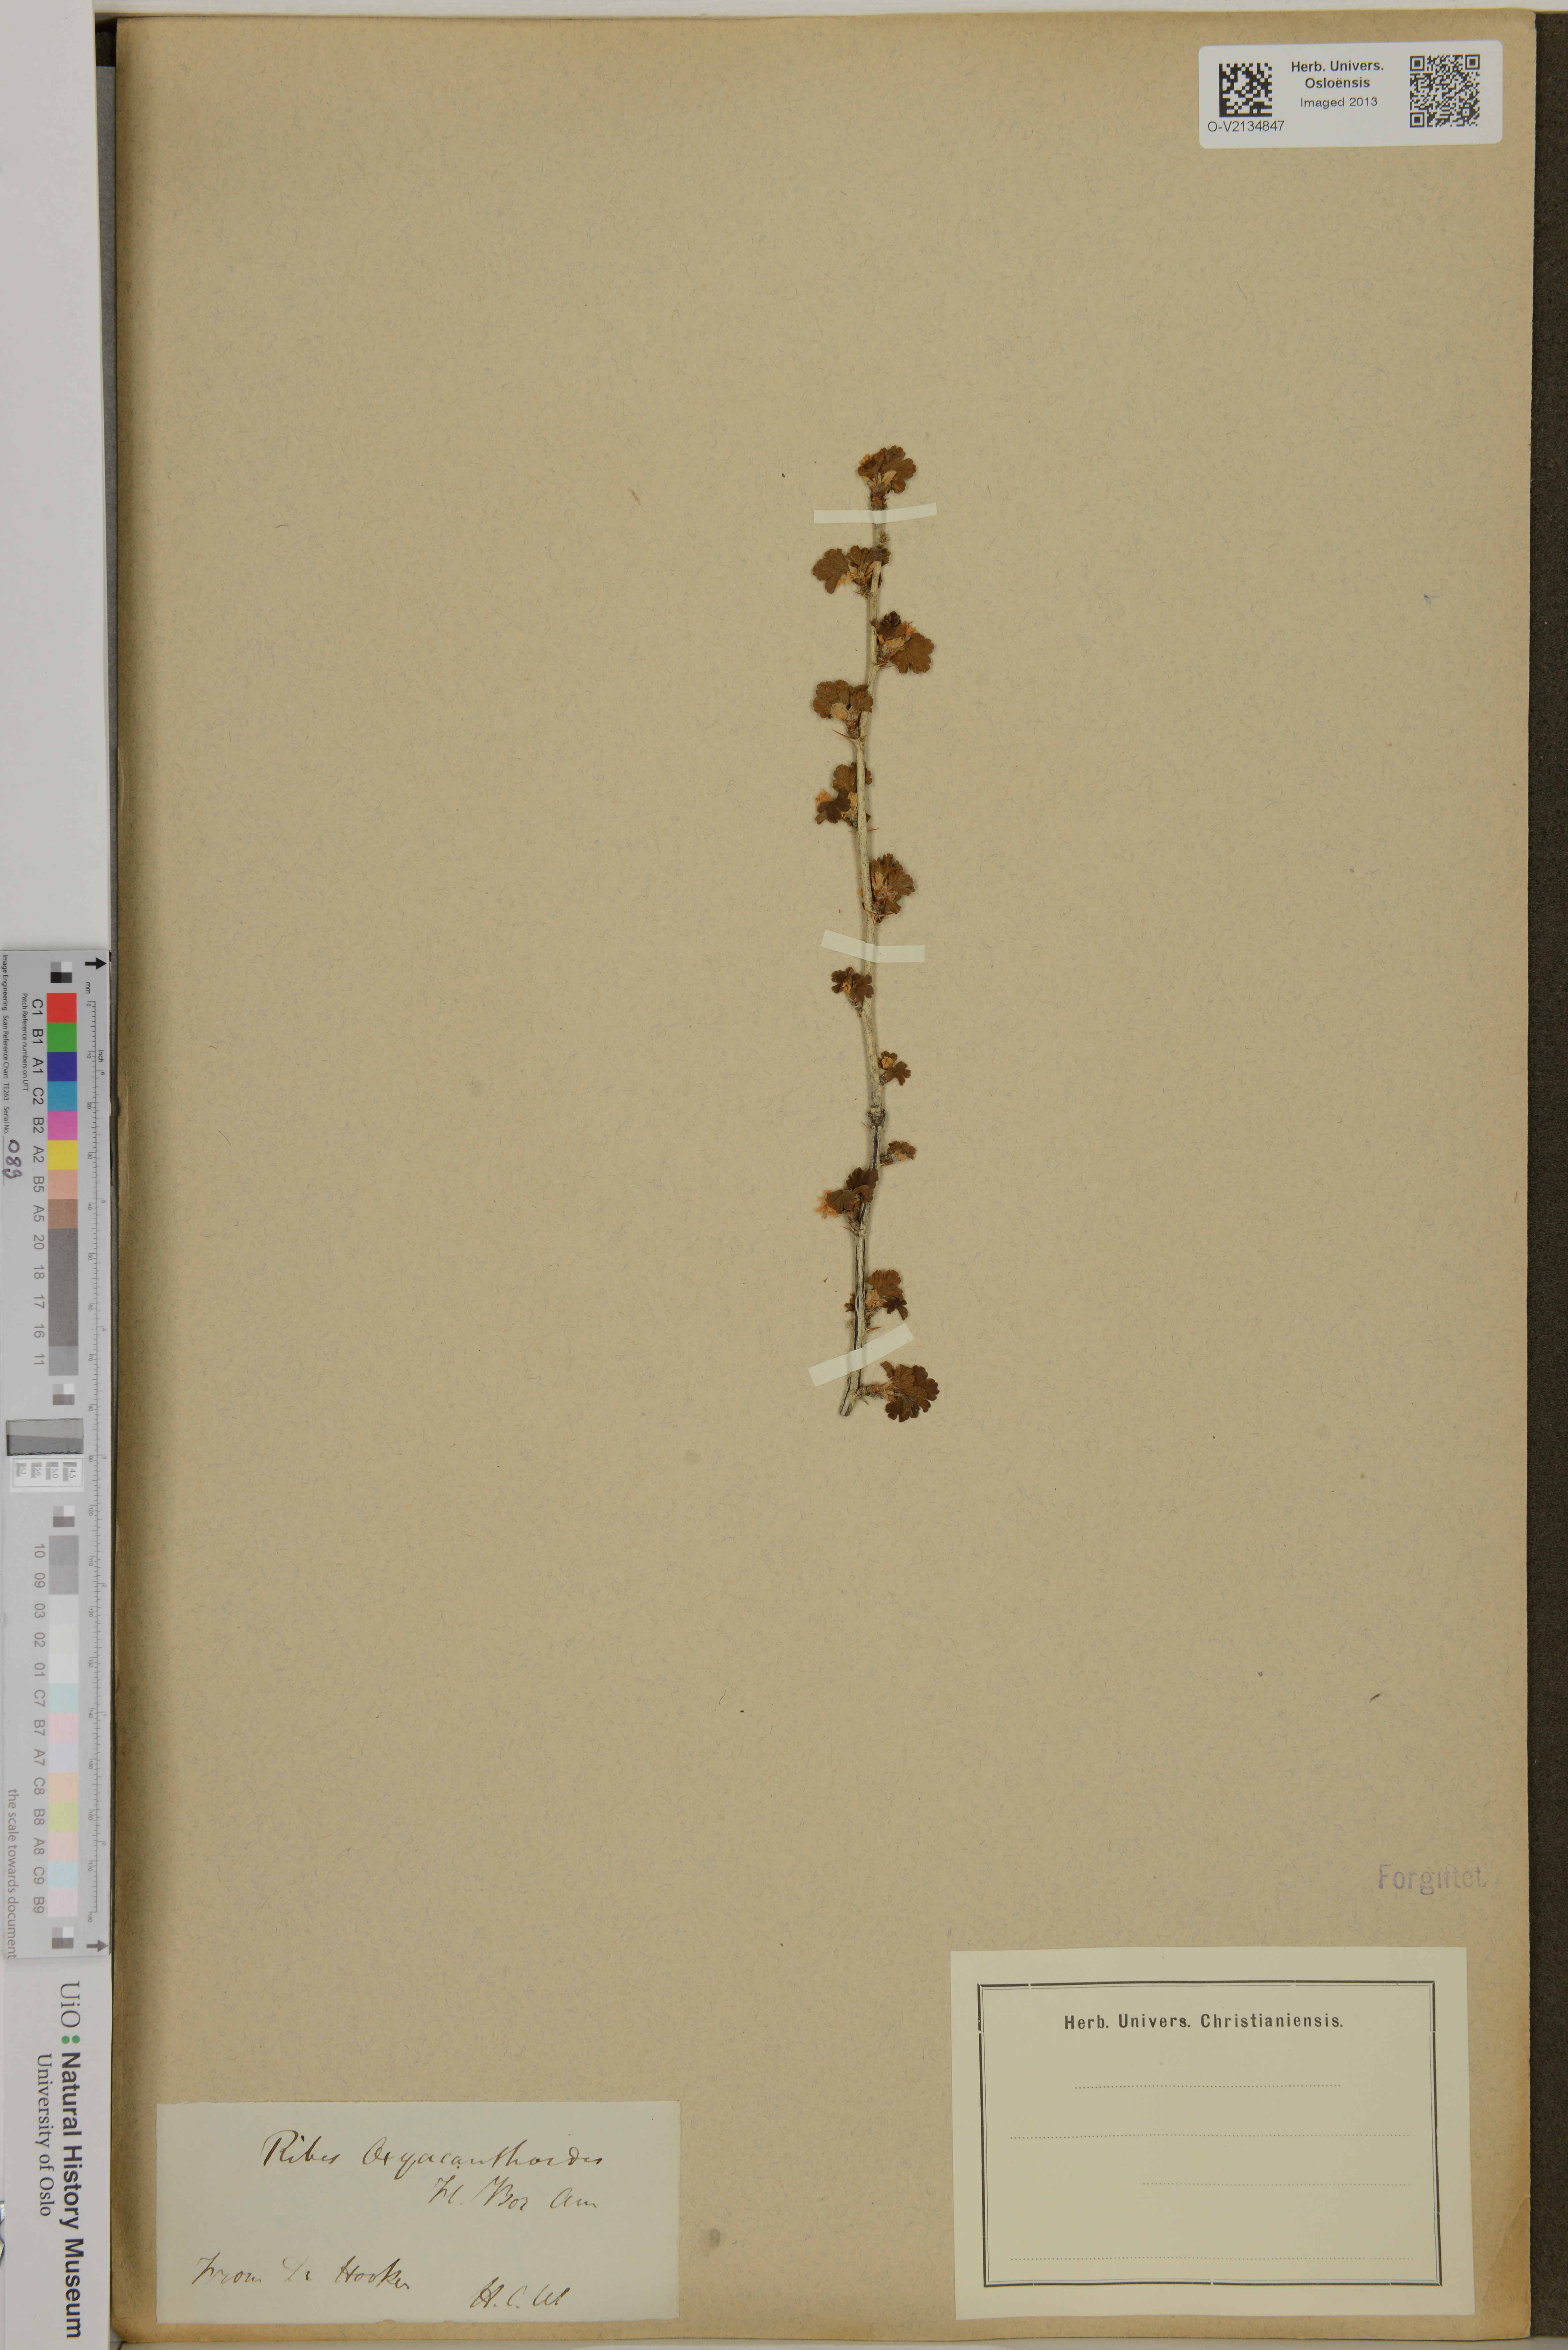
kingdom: Plantae
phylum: Tracheophyta
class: Magnoliopsida
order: Saxifragales
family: Grossulariaceae
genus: Ribes
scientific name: Ribes oxyacanthoides
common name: Northern gooseberry
